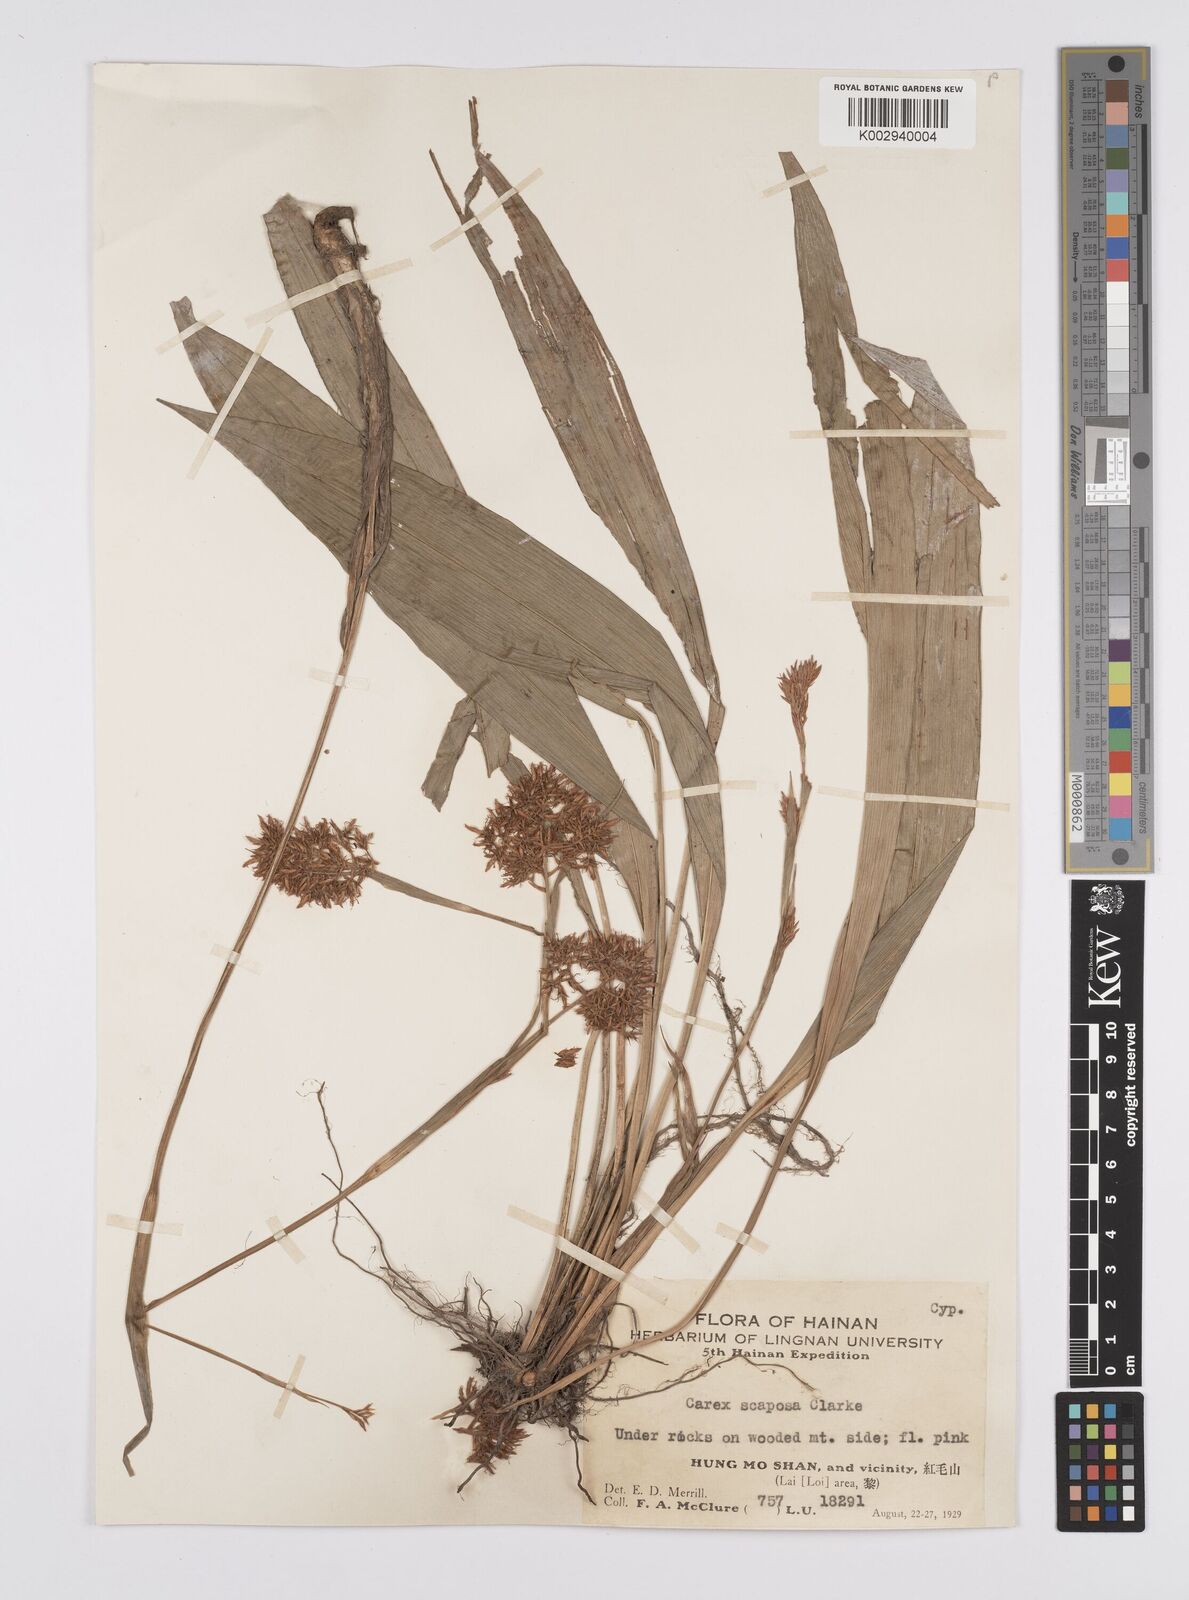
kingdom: Plantae
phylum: Tracheophyta
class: Liliopsida
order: Poales
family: Cyperaceae
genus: Carex
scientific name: Carex scaposa
